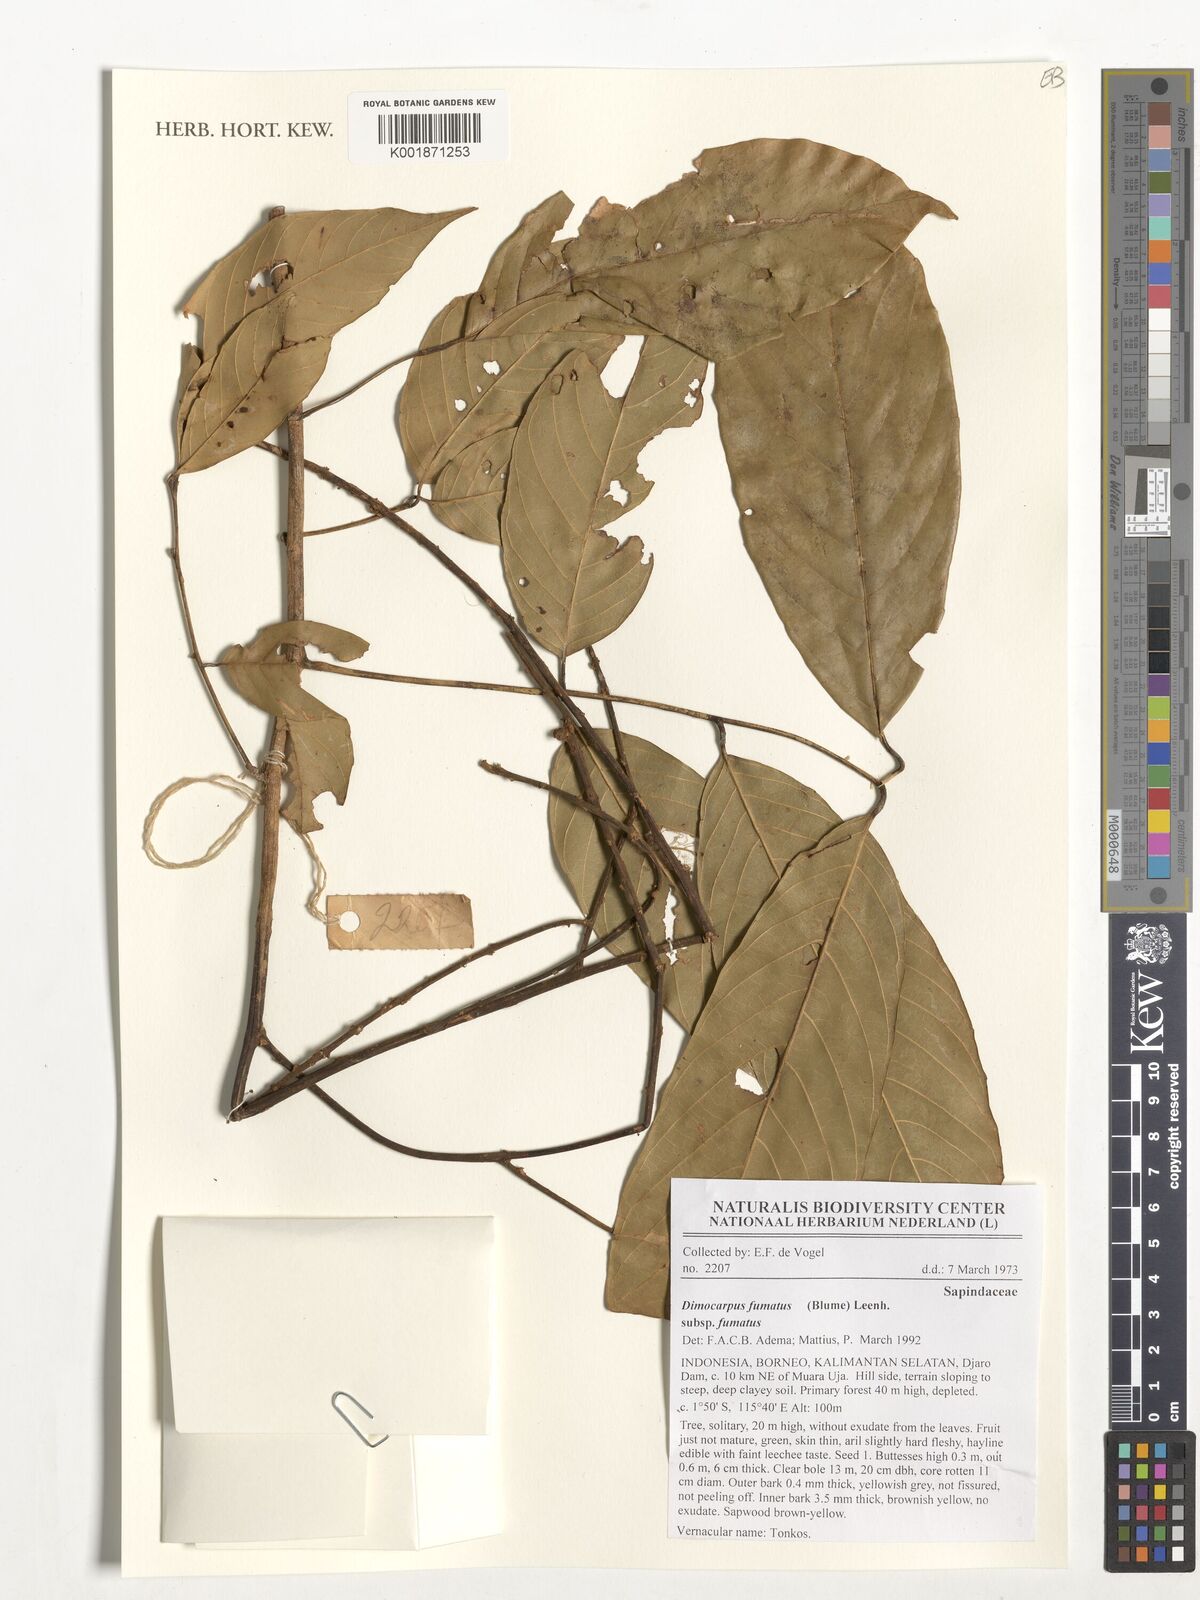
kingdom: Plantae
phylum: Tracheophyta
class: Magnoliopsida
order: Sapindales
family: Sapindaceae
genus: Dimocarpus
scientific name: Dimocarpus fumatus
